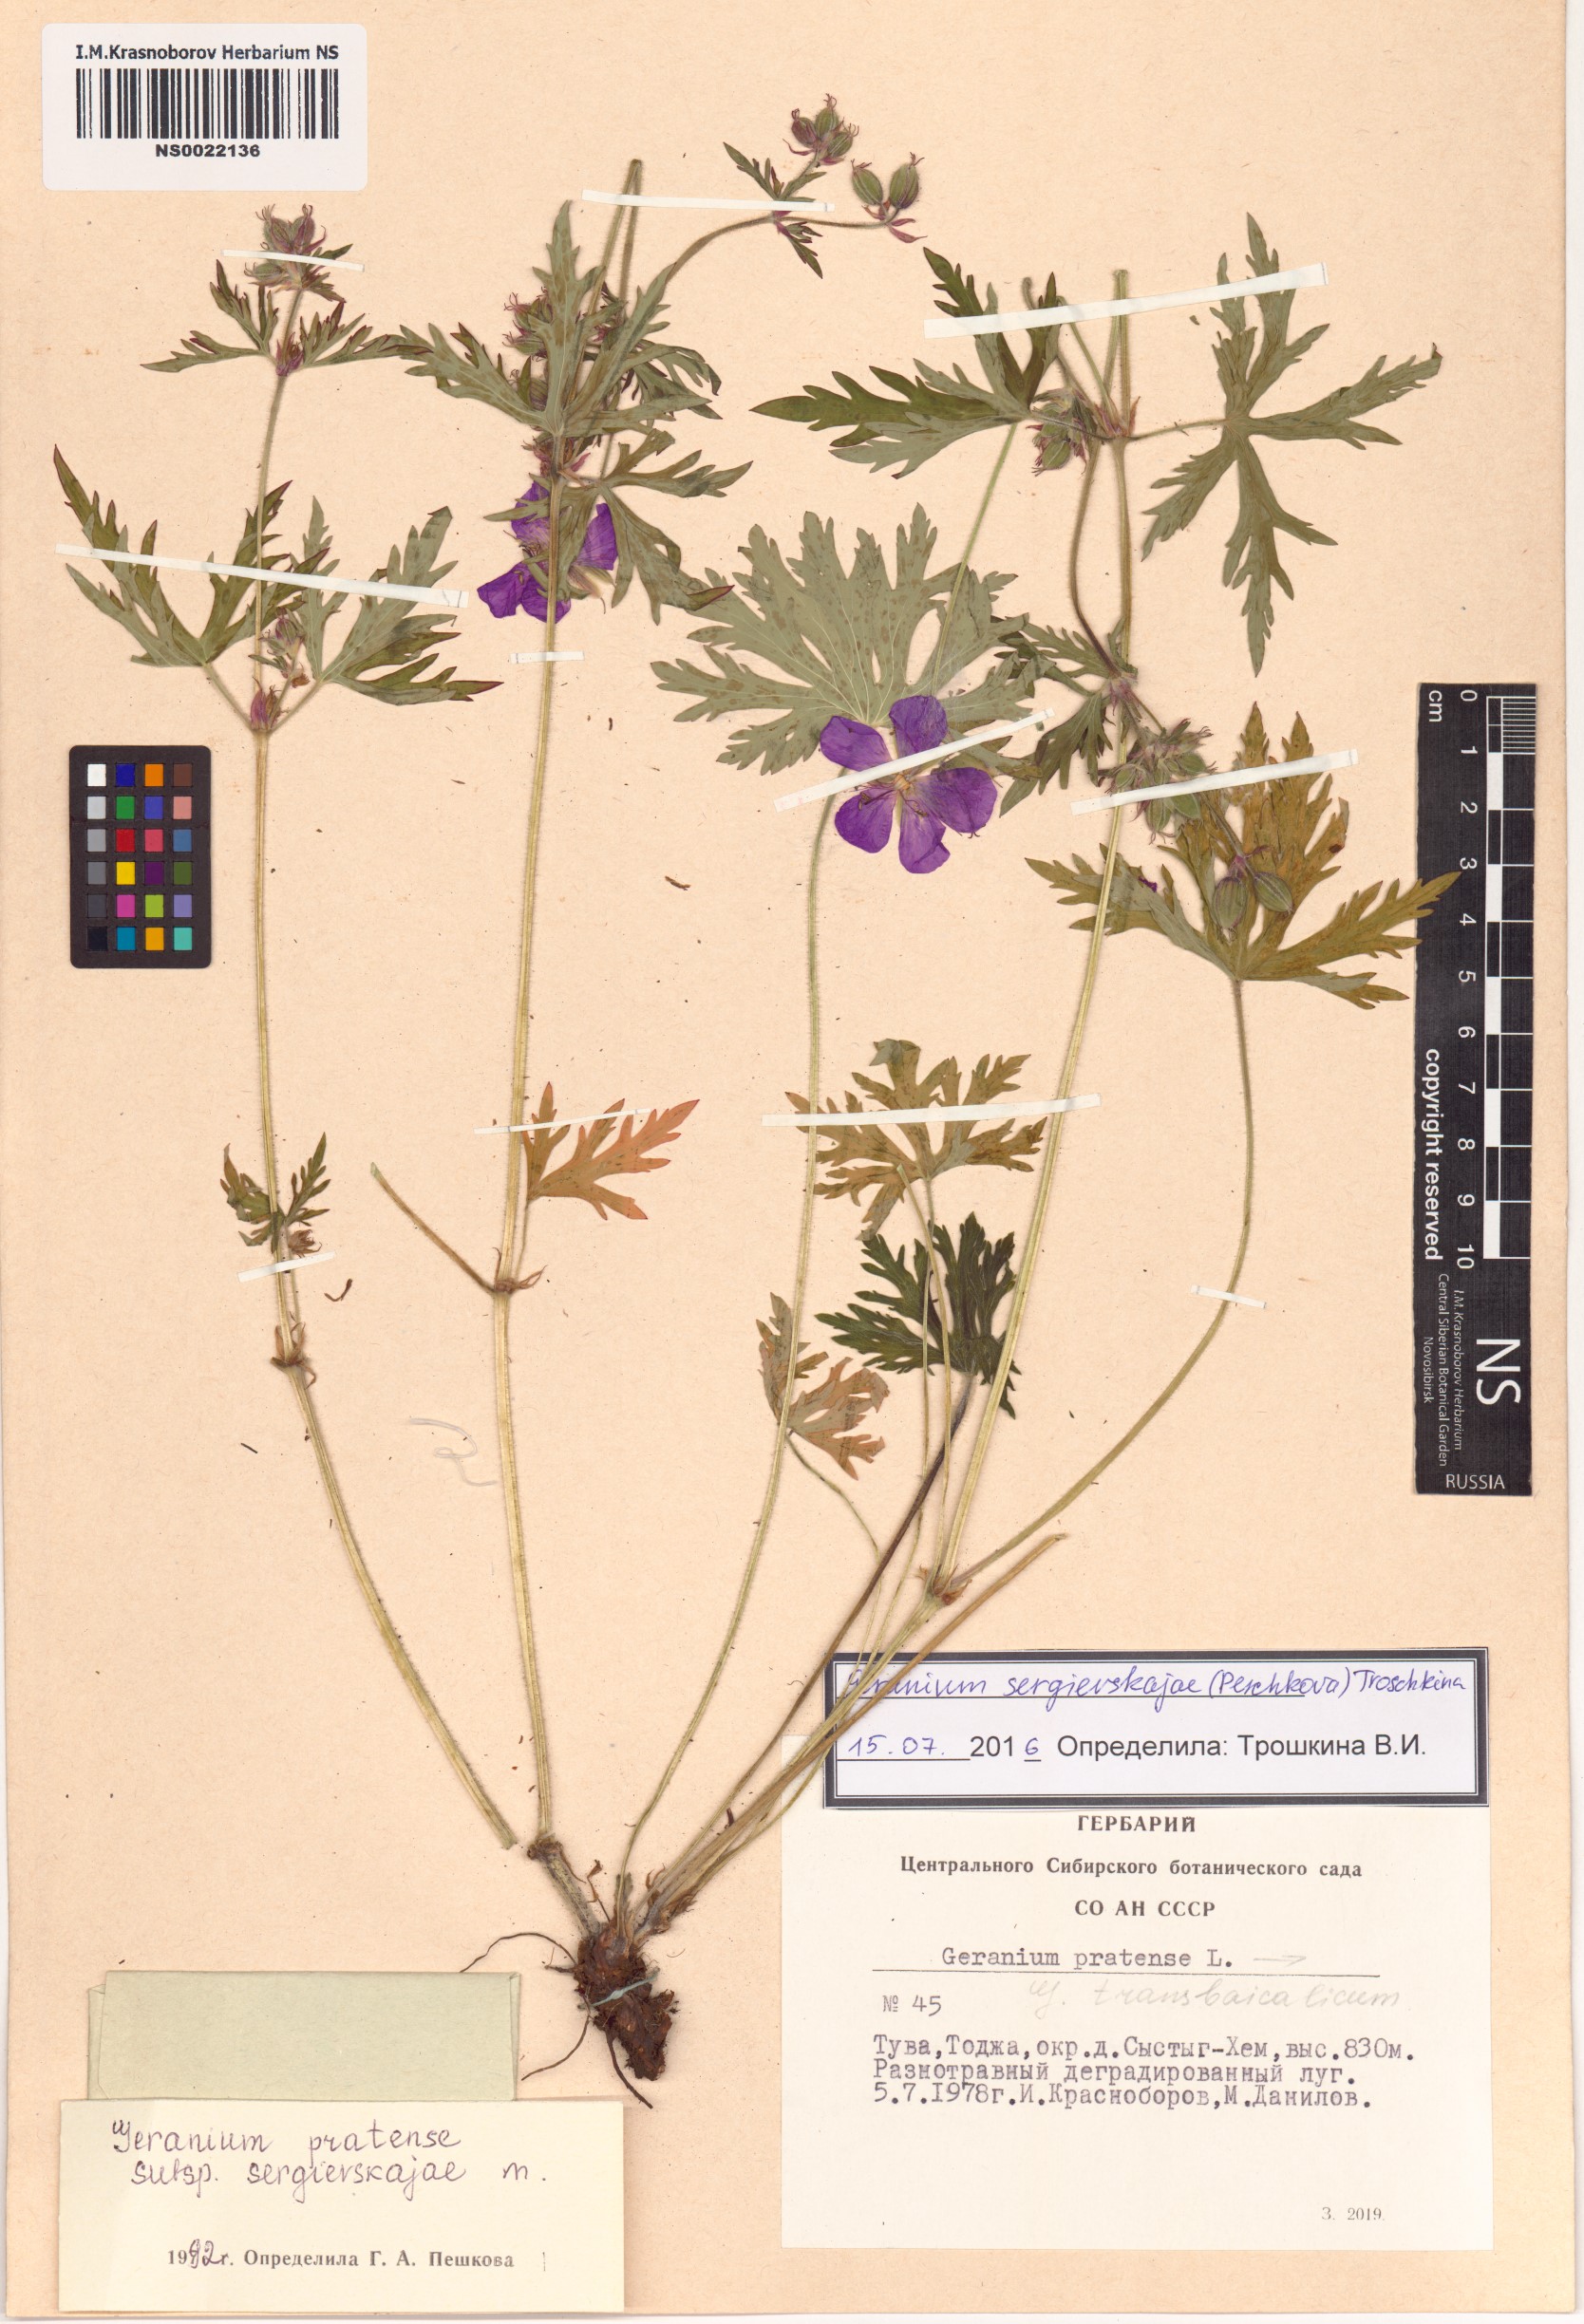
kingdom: Plantae
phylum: Tracheophyta
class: Magnoliopsida
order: Geraniales
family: Geraniaceae
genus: Geranium
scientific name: Geranium pratense
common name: Meadow crane's-bill
